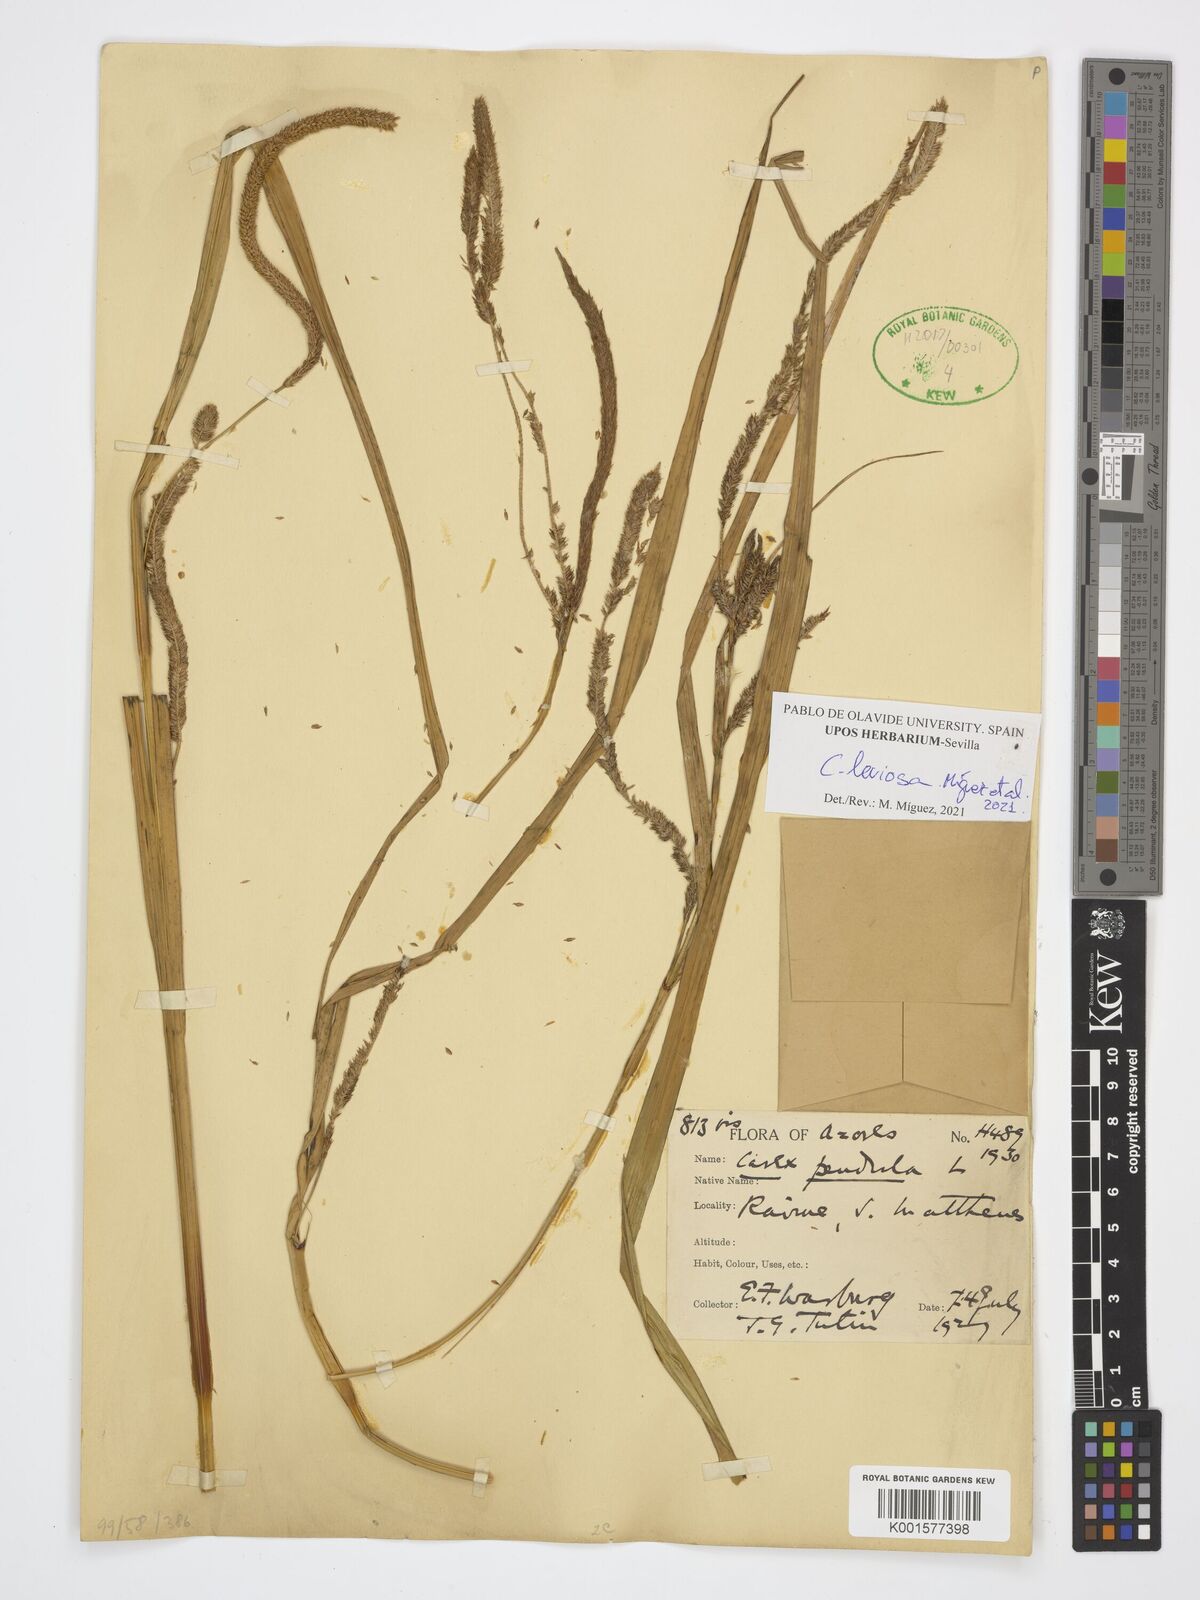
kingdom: Plantae
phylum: Tracheophyta
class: Liliopsida
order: Poales
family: Cyperaceae
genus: Carex
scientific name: Carex pendula
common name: Pendulous sedge
